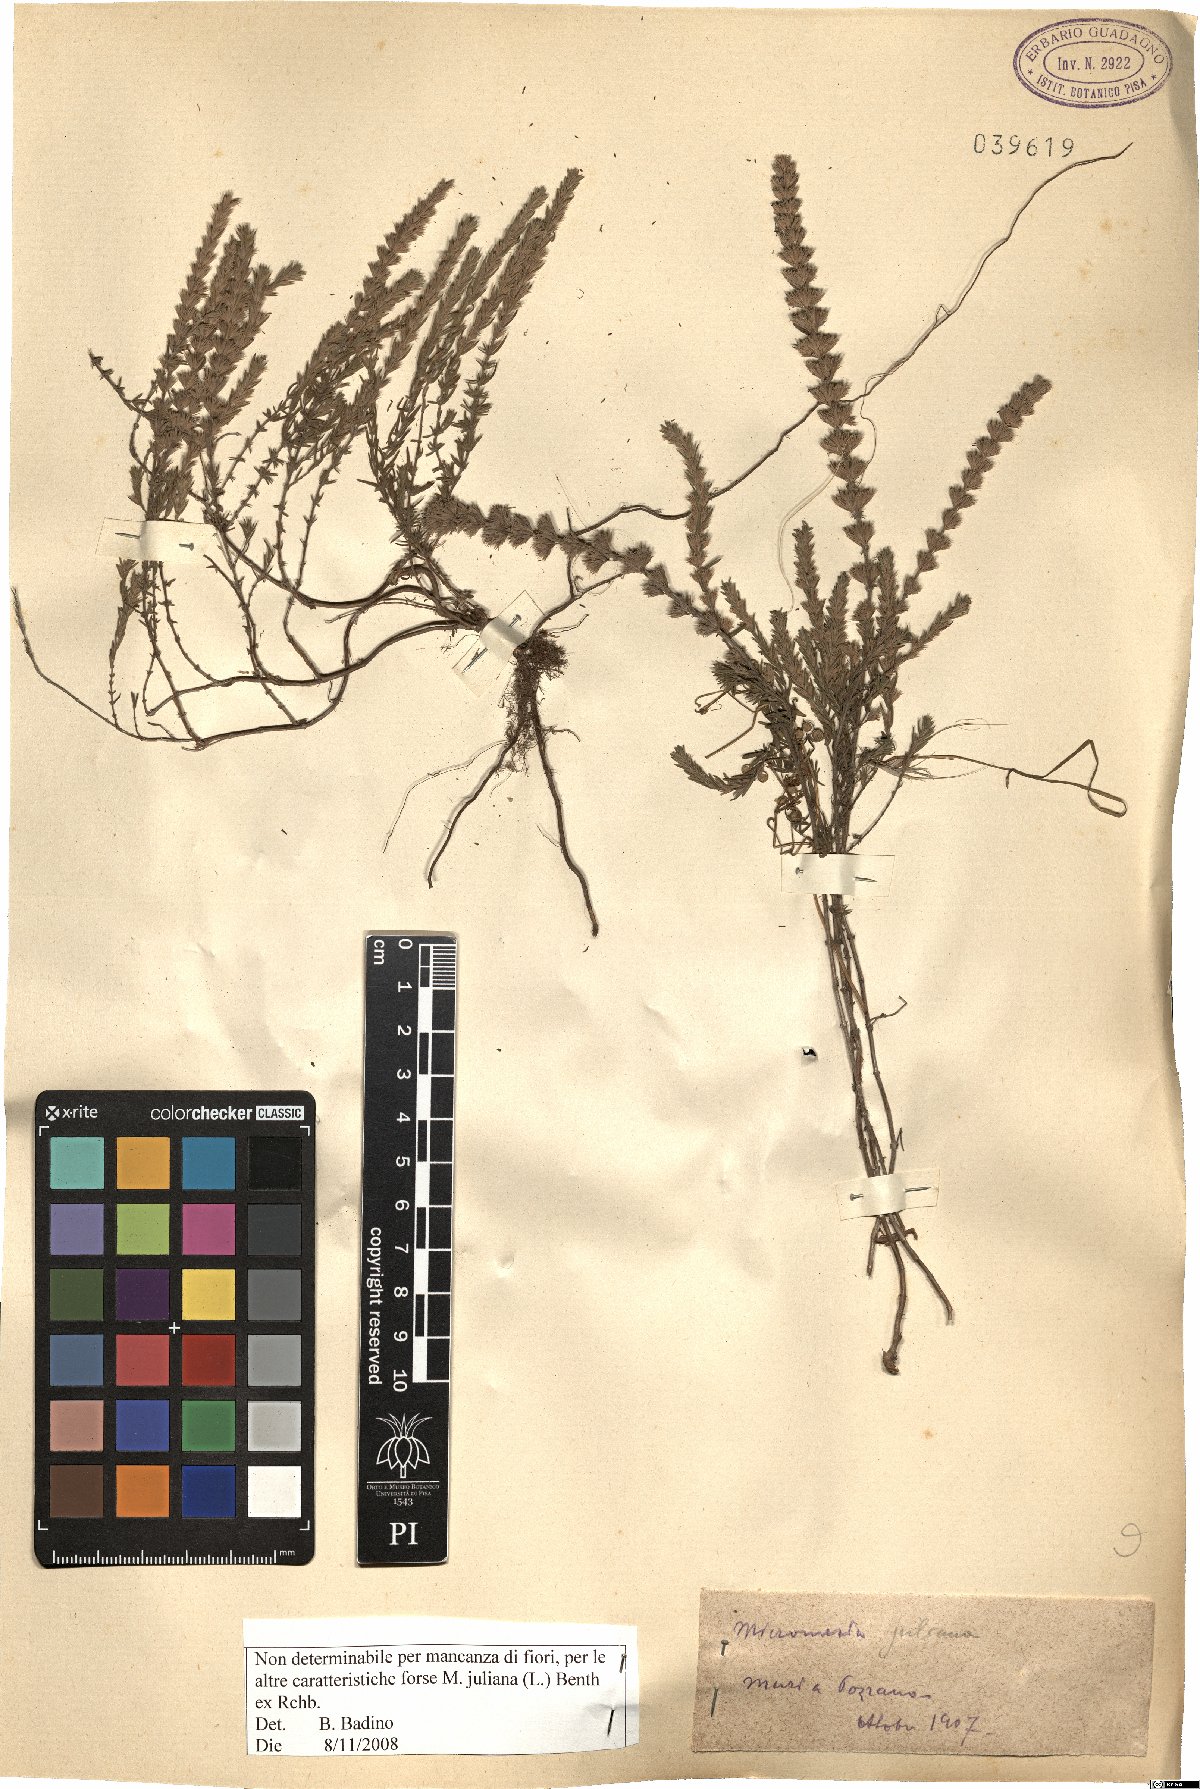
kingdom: Plantae
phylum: Tracheophyta
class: Magnoliopsida
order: Lamiales
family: Lamiaceae
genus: Micromeria
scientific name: Micromeria juliana
